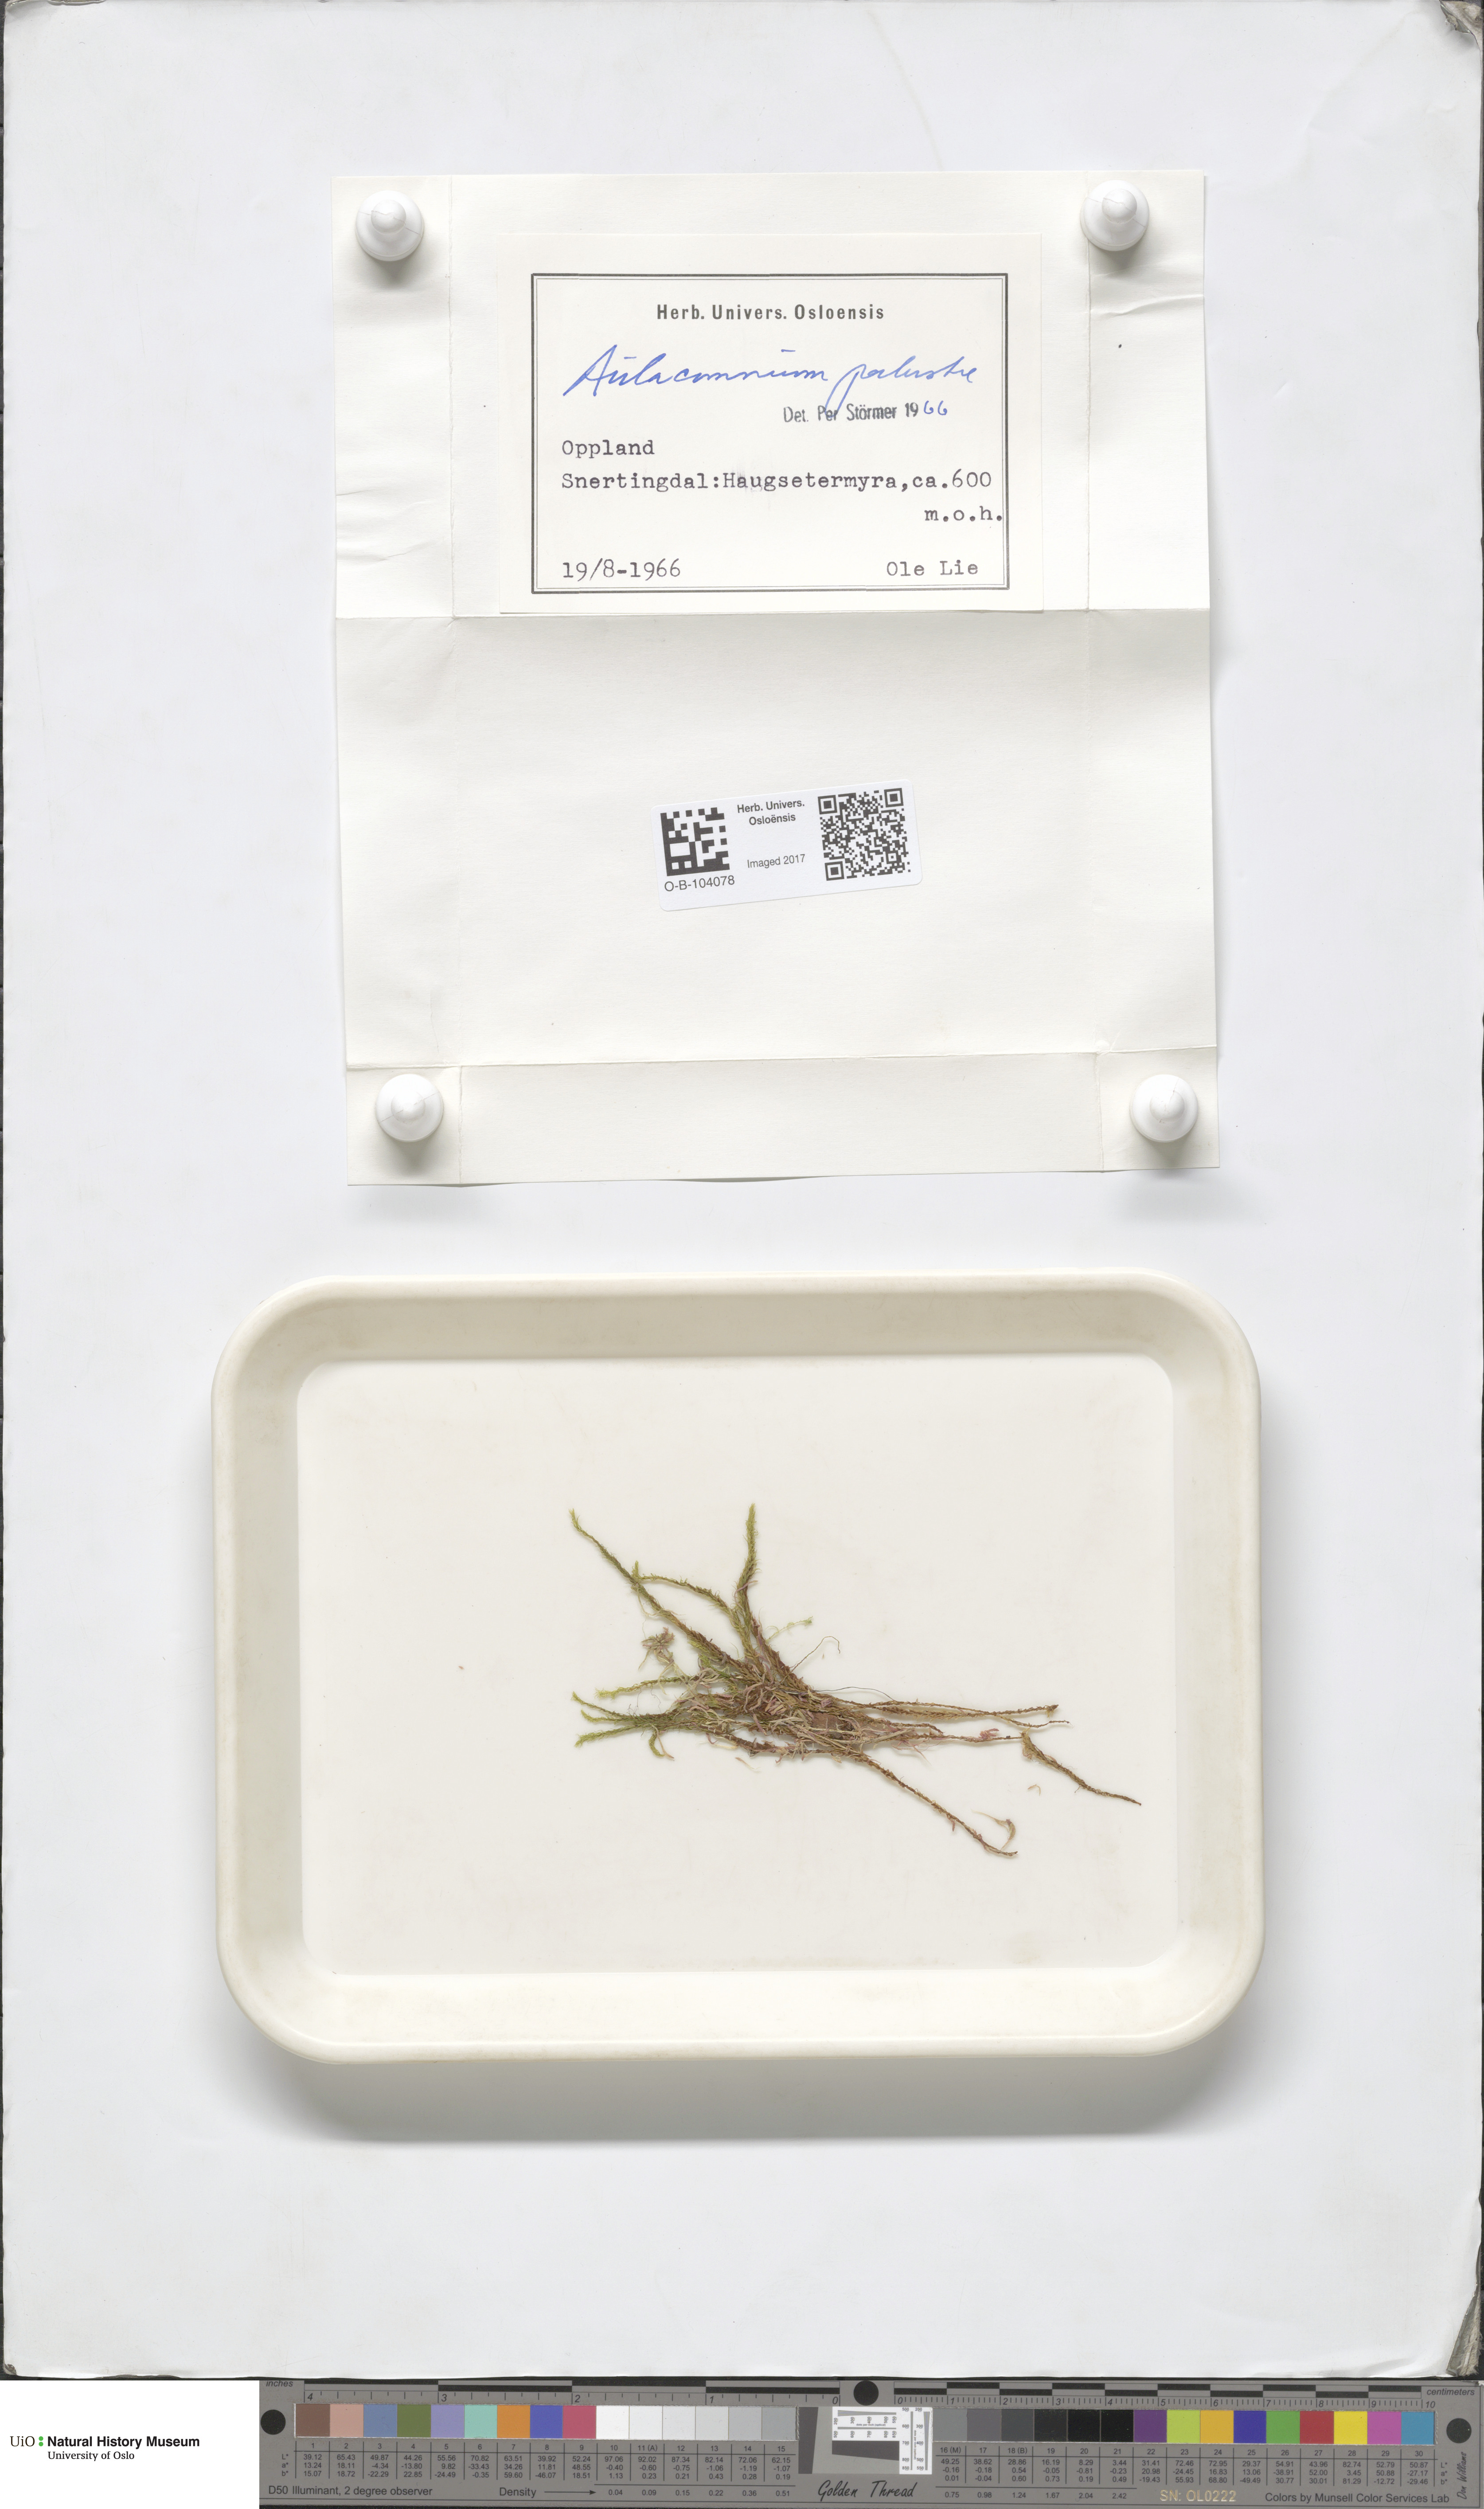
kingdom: Plantae
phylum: Bryophyta
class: Bryopsida
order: Aulacomniales
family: Aulacomniaceae
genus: Aulacomnium
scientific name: Aulacomnium palustre
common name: Bog groove-moss
